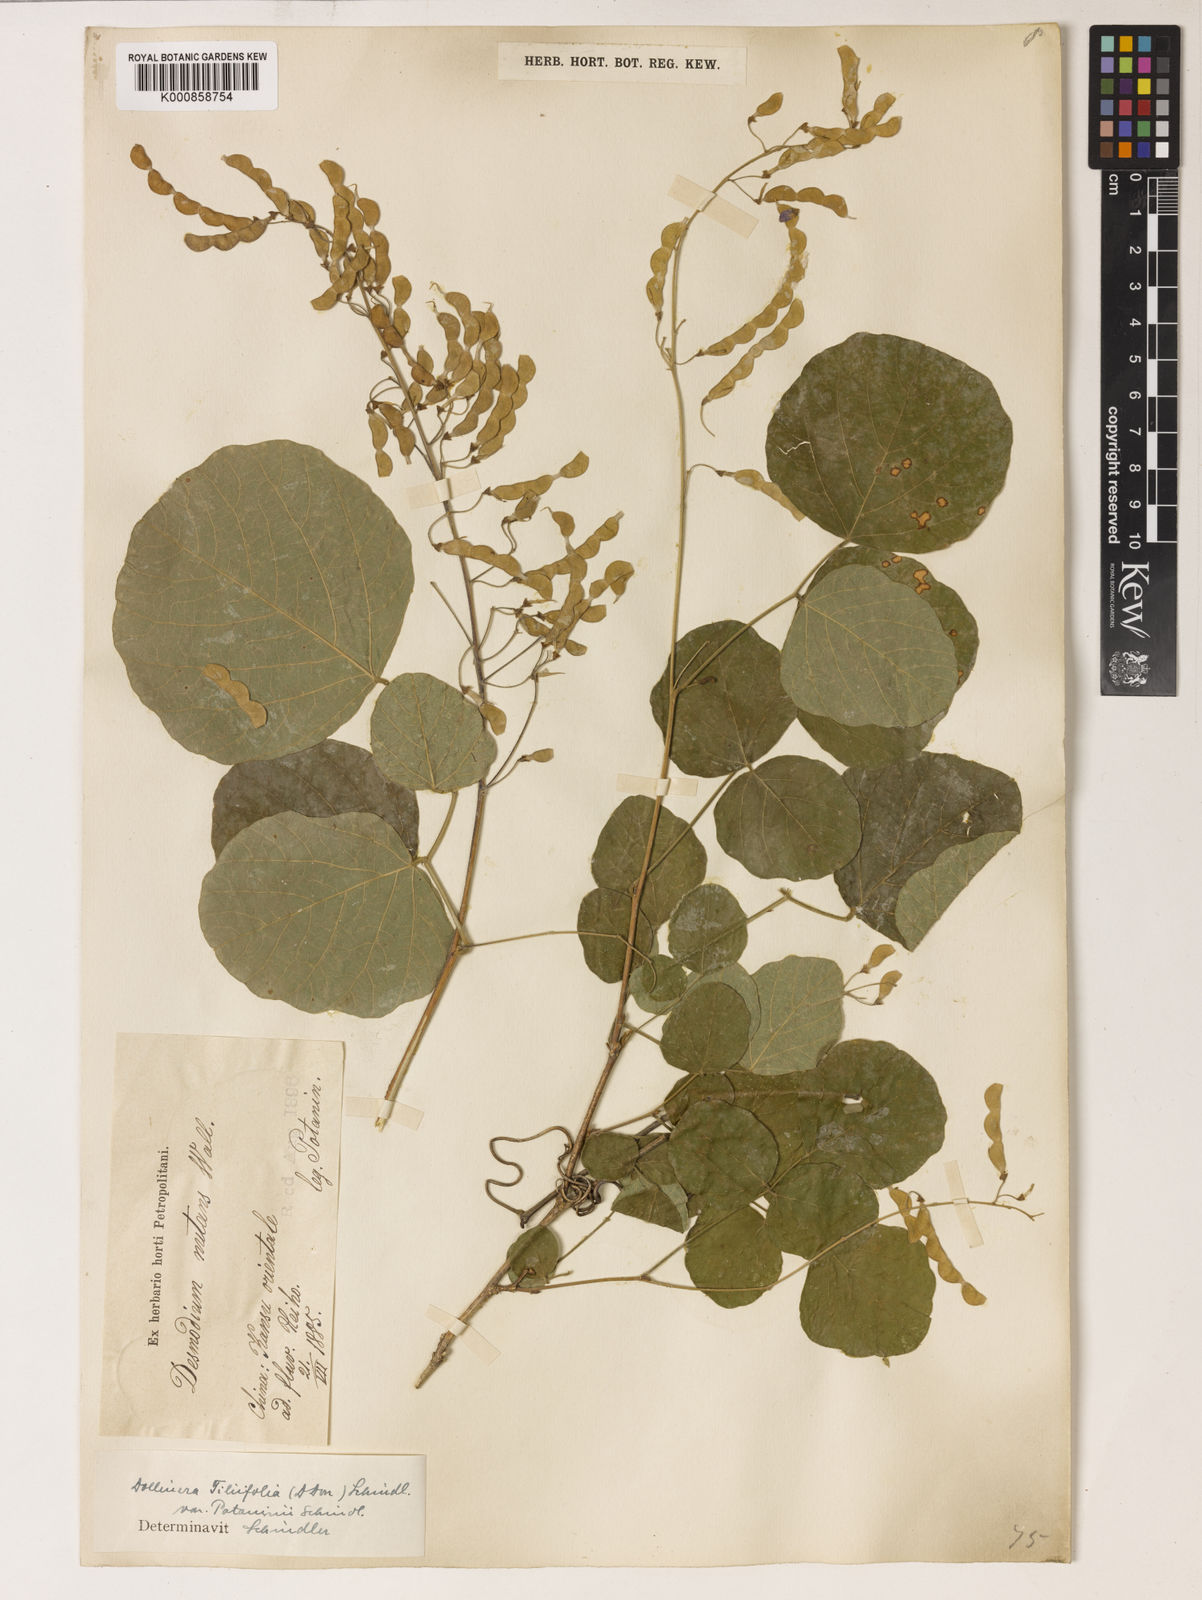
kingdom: Plantae
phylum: Tracheophyta
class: Magnoliopsida
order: Fabales
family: Fabaceae
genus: Sunhangia
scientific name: Sunhangia elegans
